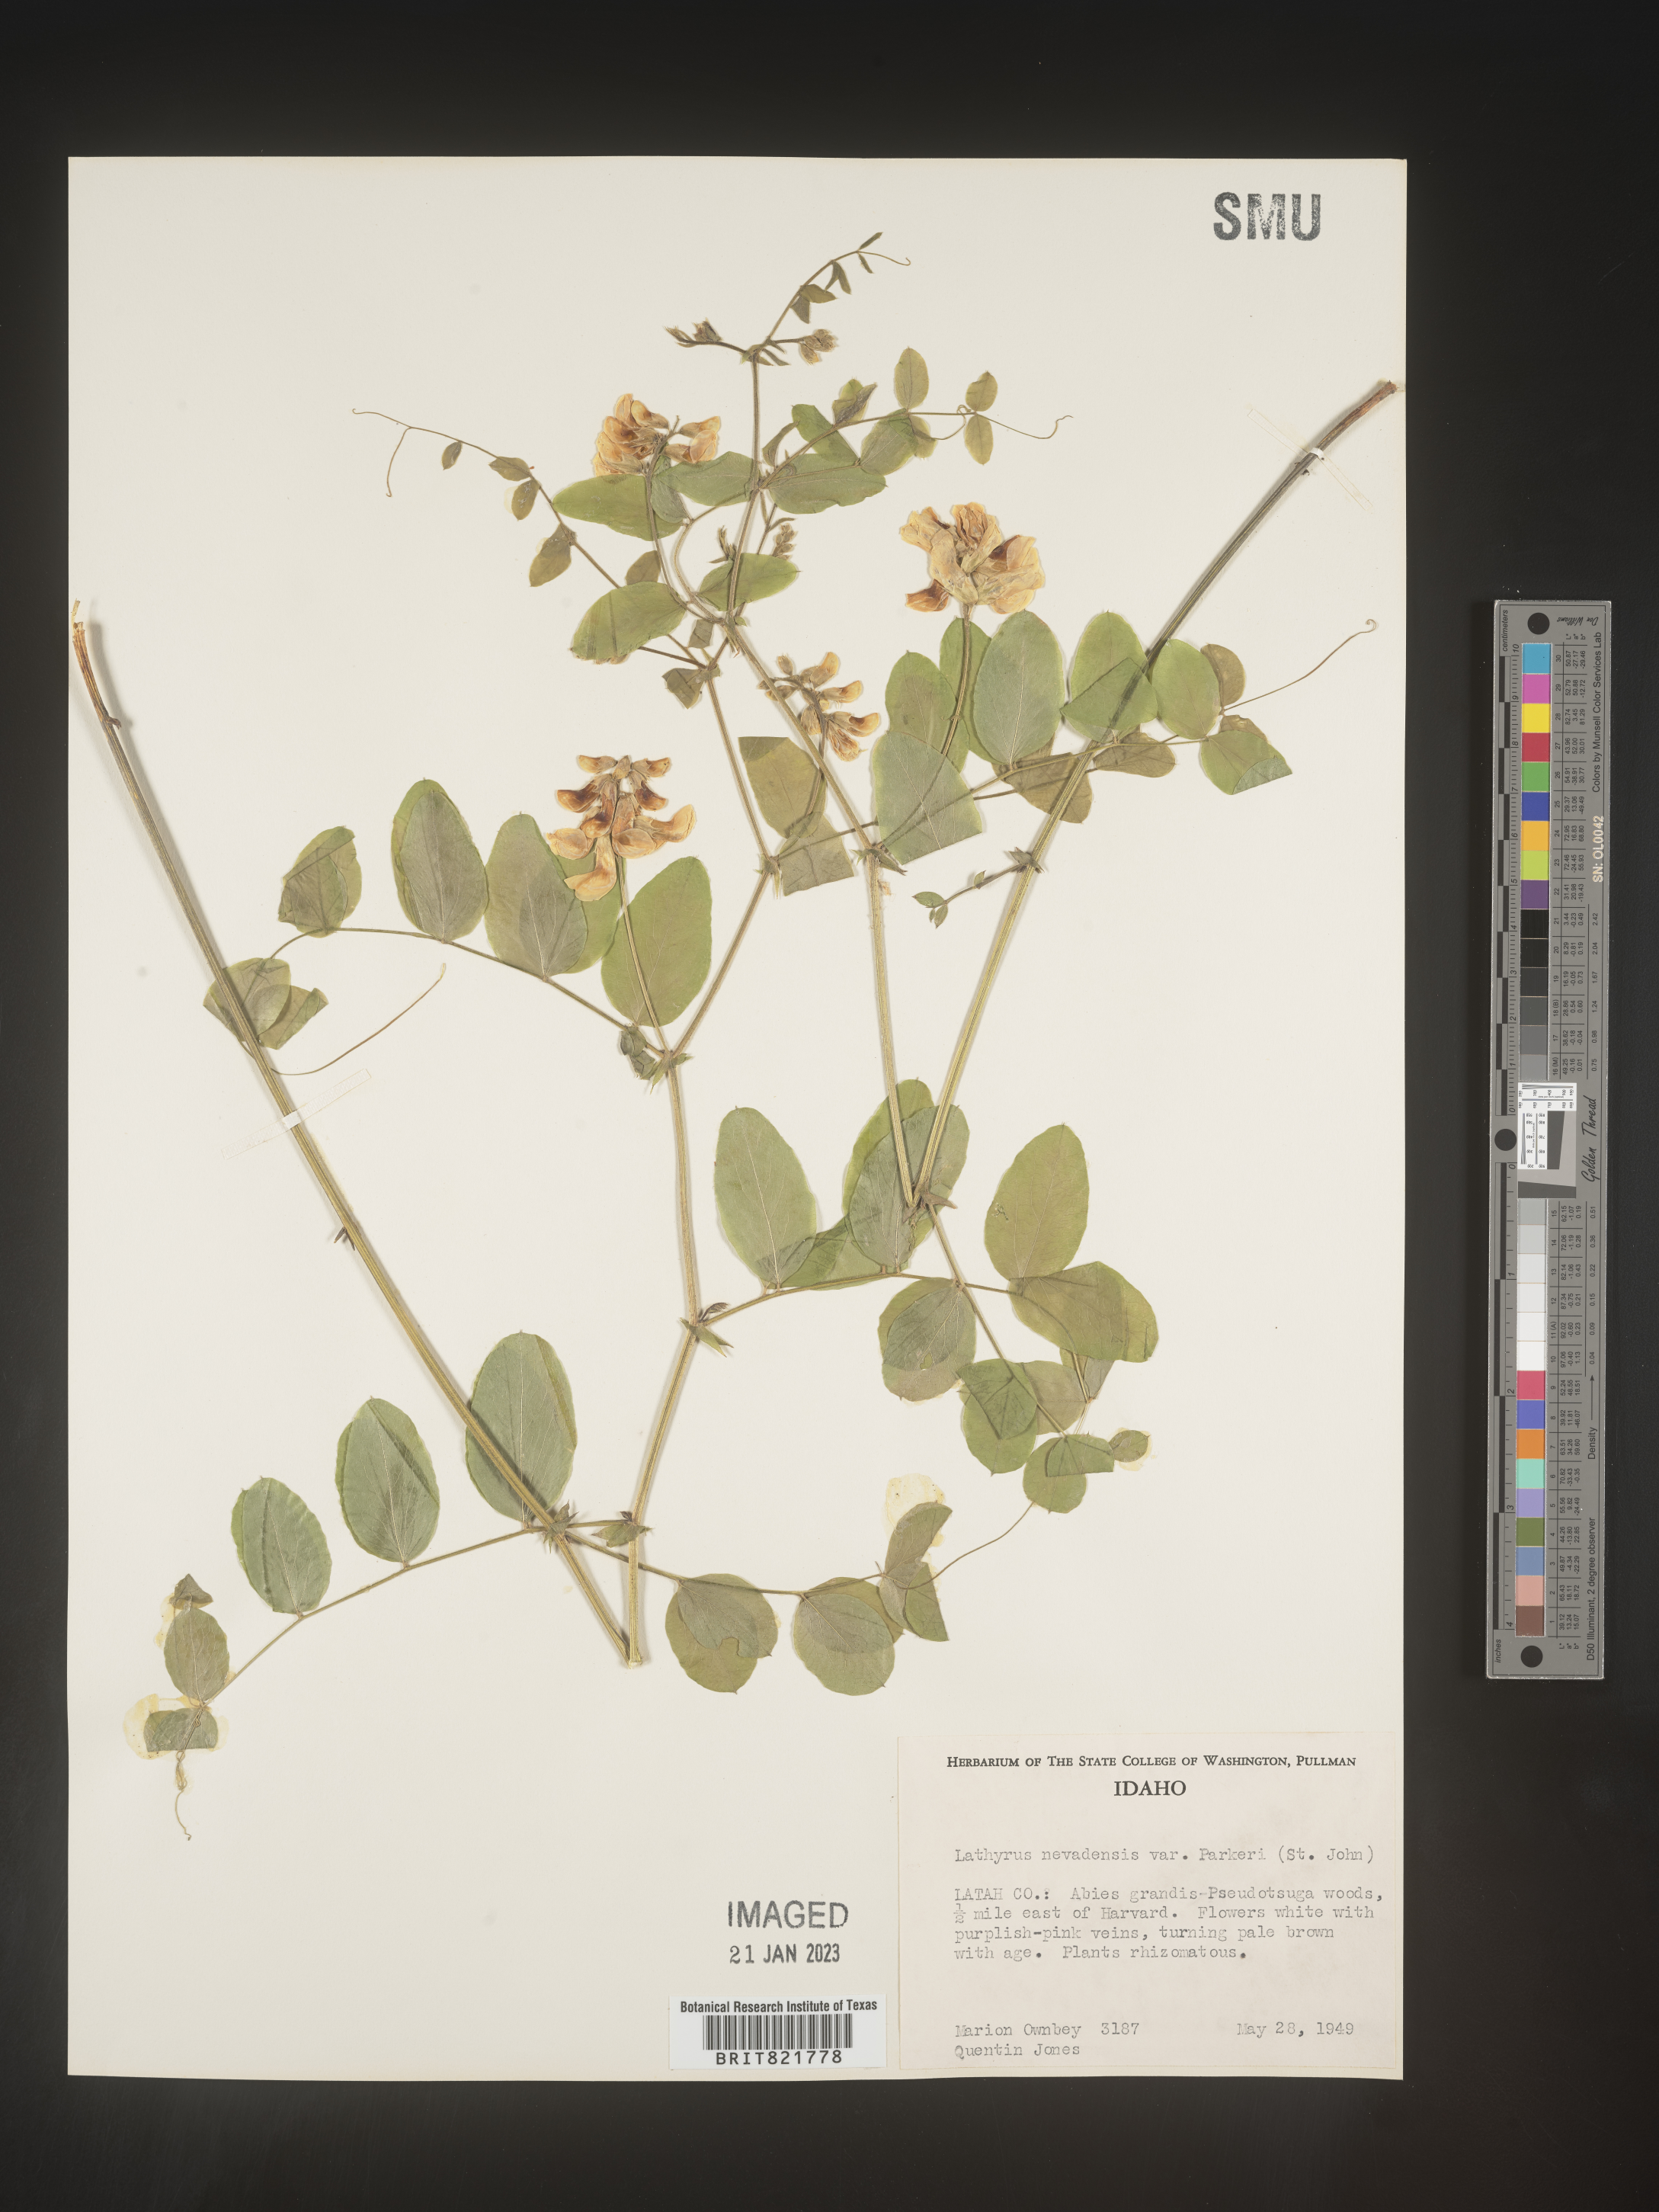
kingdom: Plantae
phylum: Tracheophyta
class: Magnoliopsida
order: Fabales
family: Fabaceae
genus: Lathyrus
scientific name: Lathyrus
